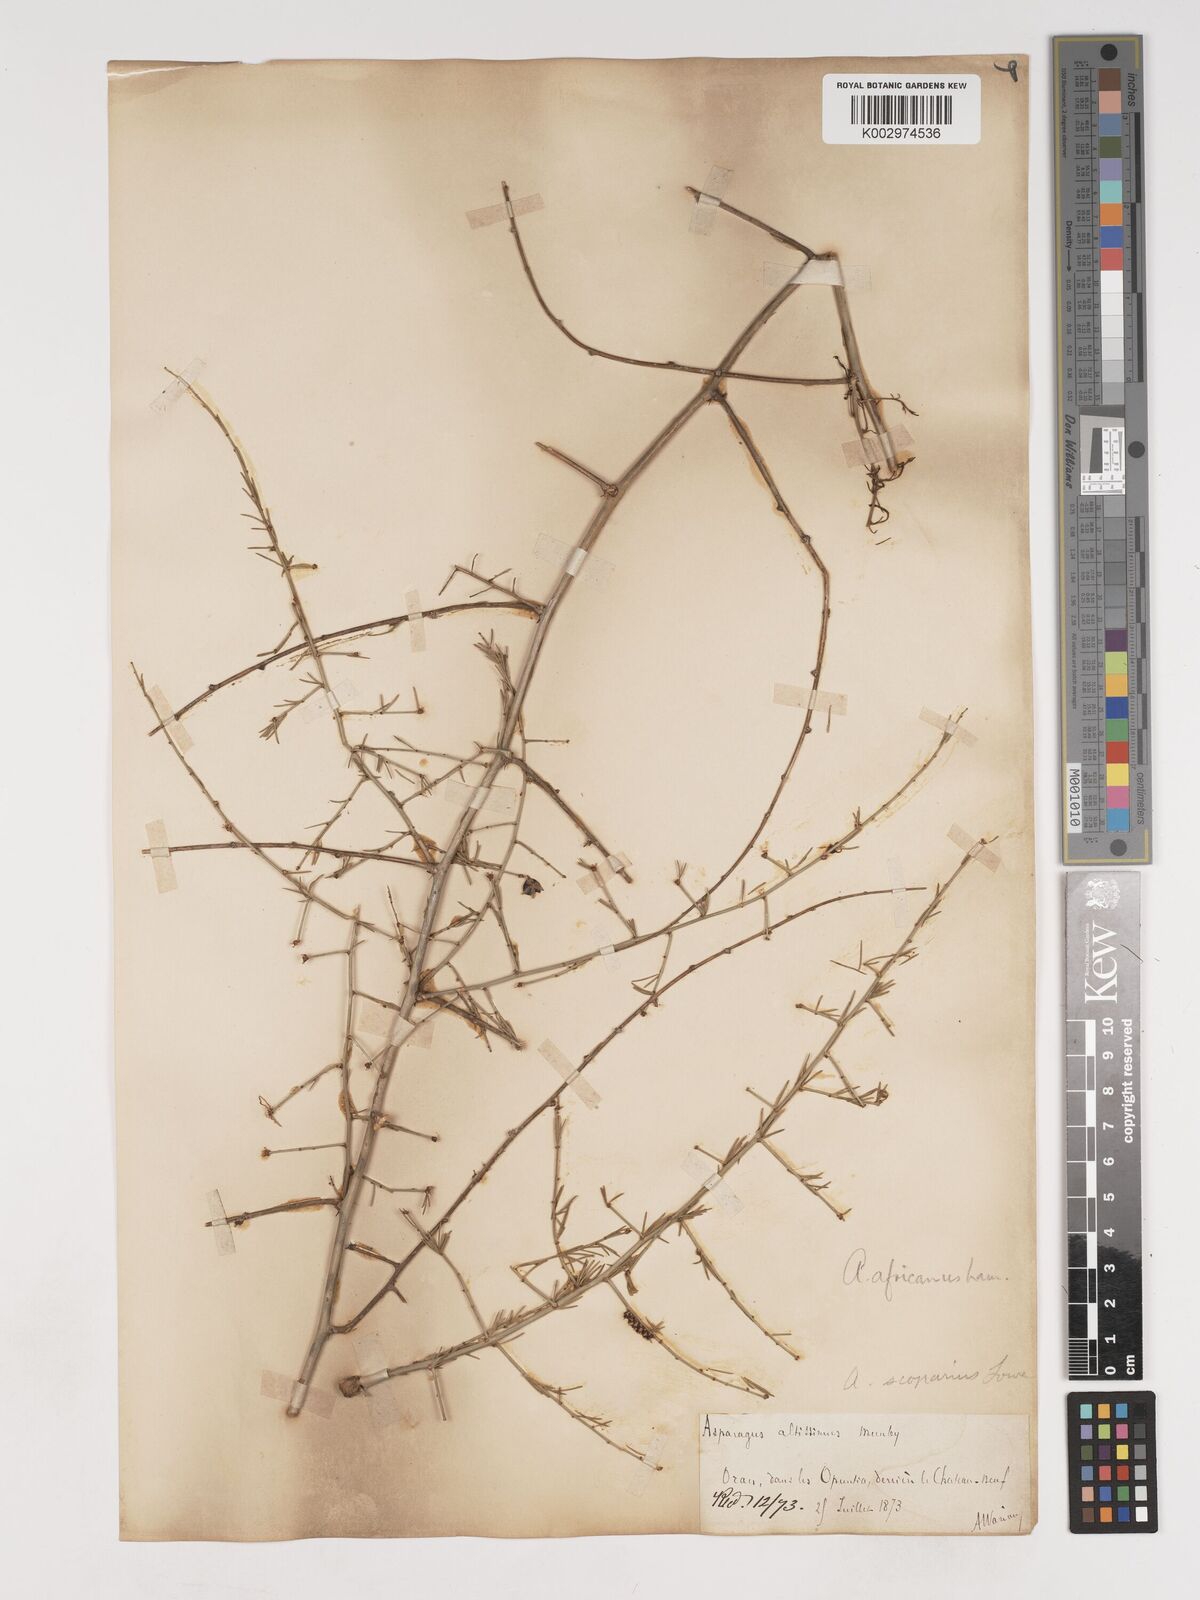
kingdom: Plantae
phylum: Tracheophyta
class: Liliopsida
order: Asparagales
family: Asparagaceae
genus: Asparagus
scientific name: Asparagus scoparius
